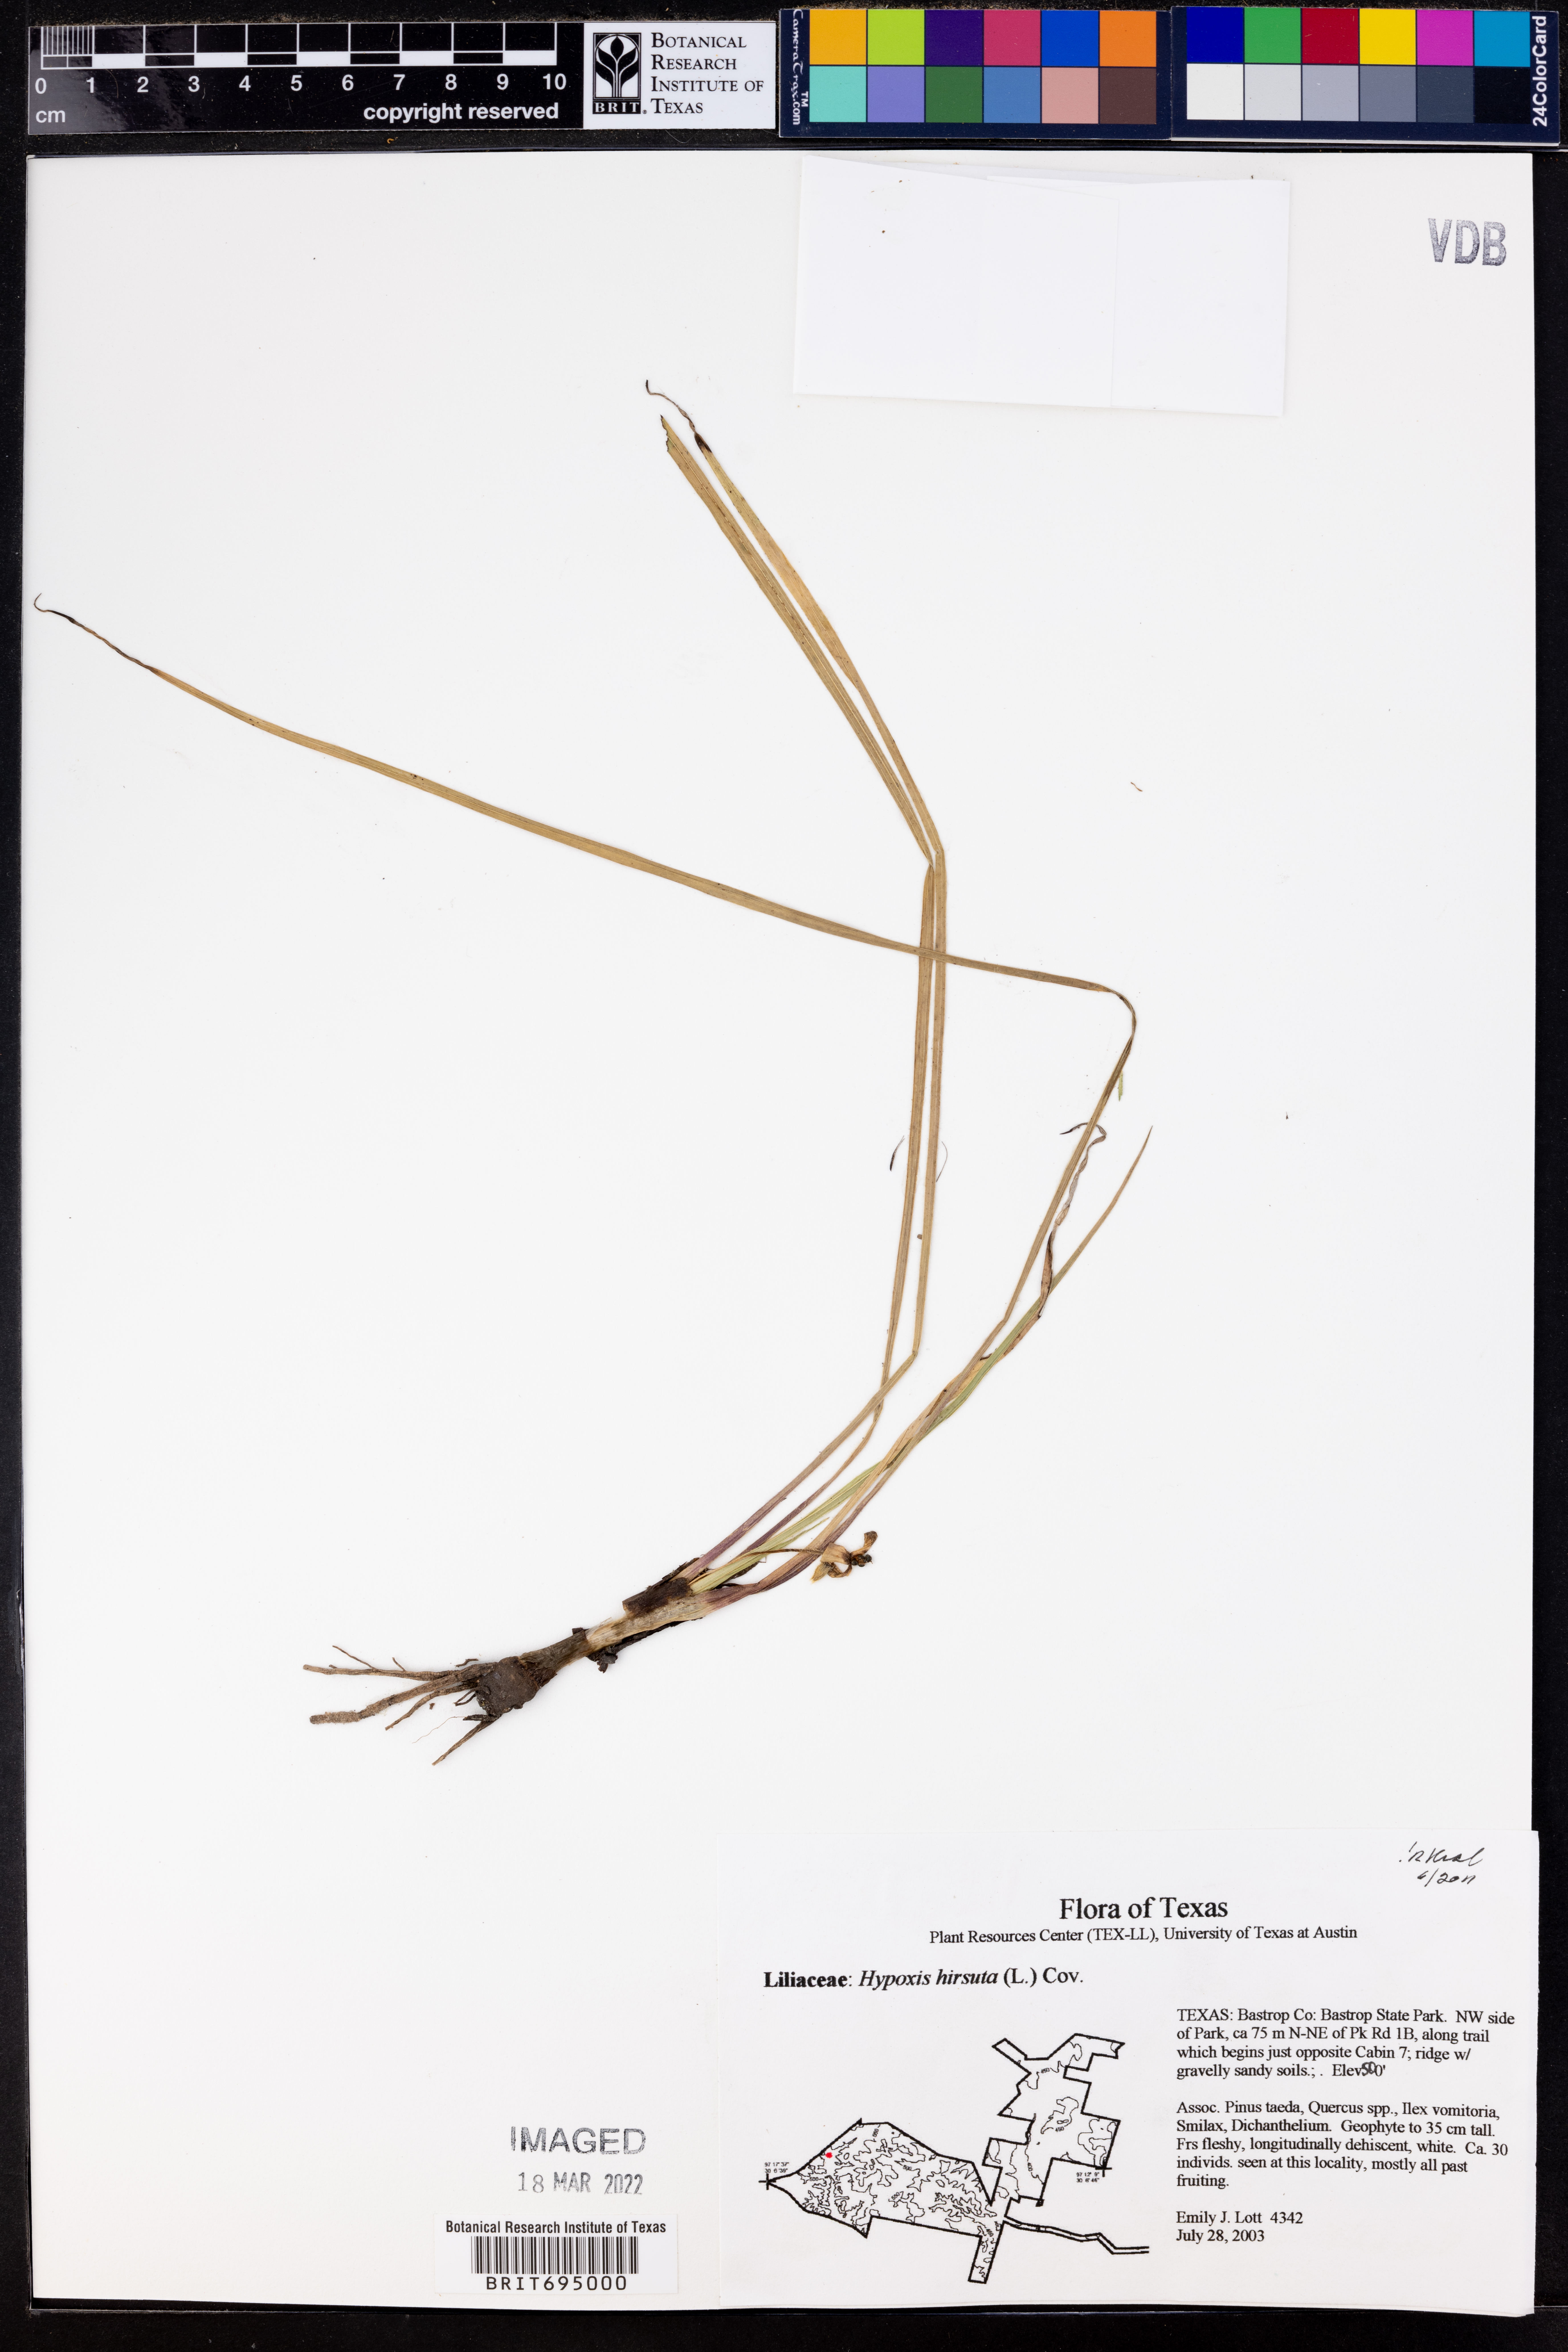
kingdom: Plantae
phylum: Tracheophyta
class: Liliopsida
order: Asparagales
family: Hypoxidaceae
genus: Hypoxis
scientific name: Hypoxis hirsuta
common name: Common goldstar
